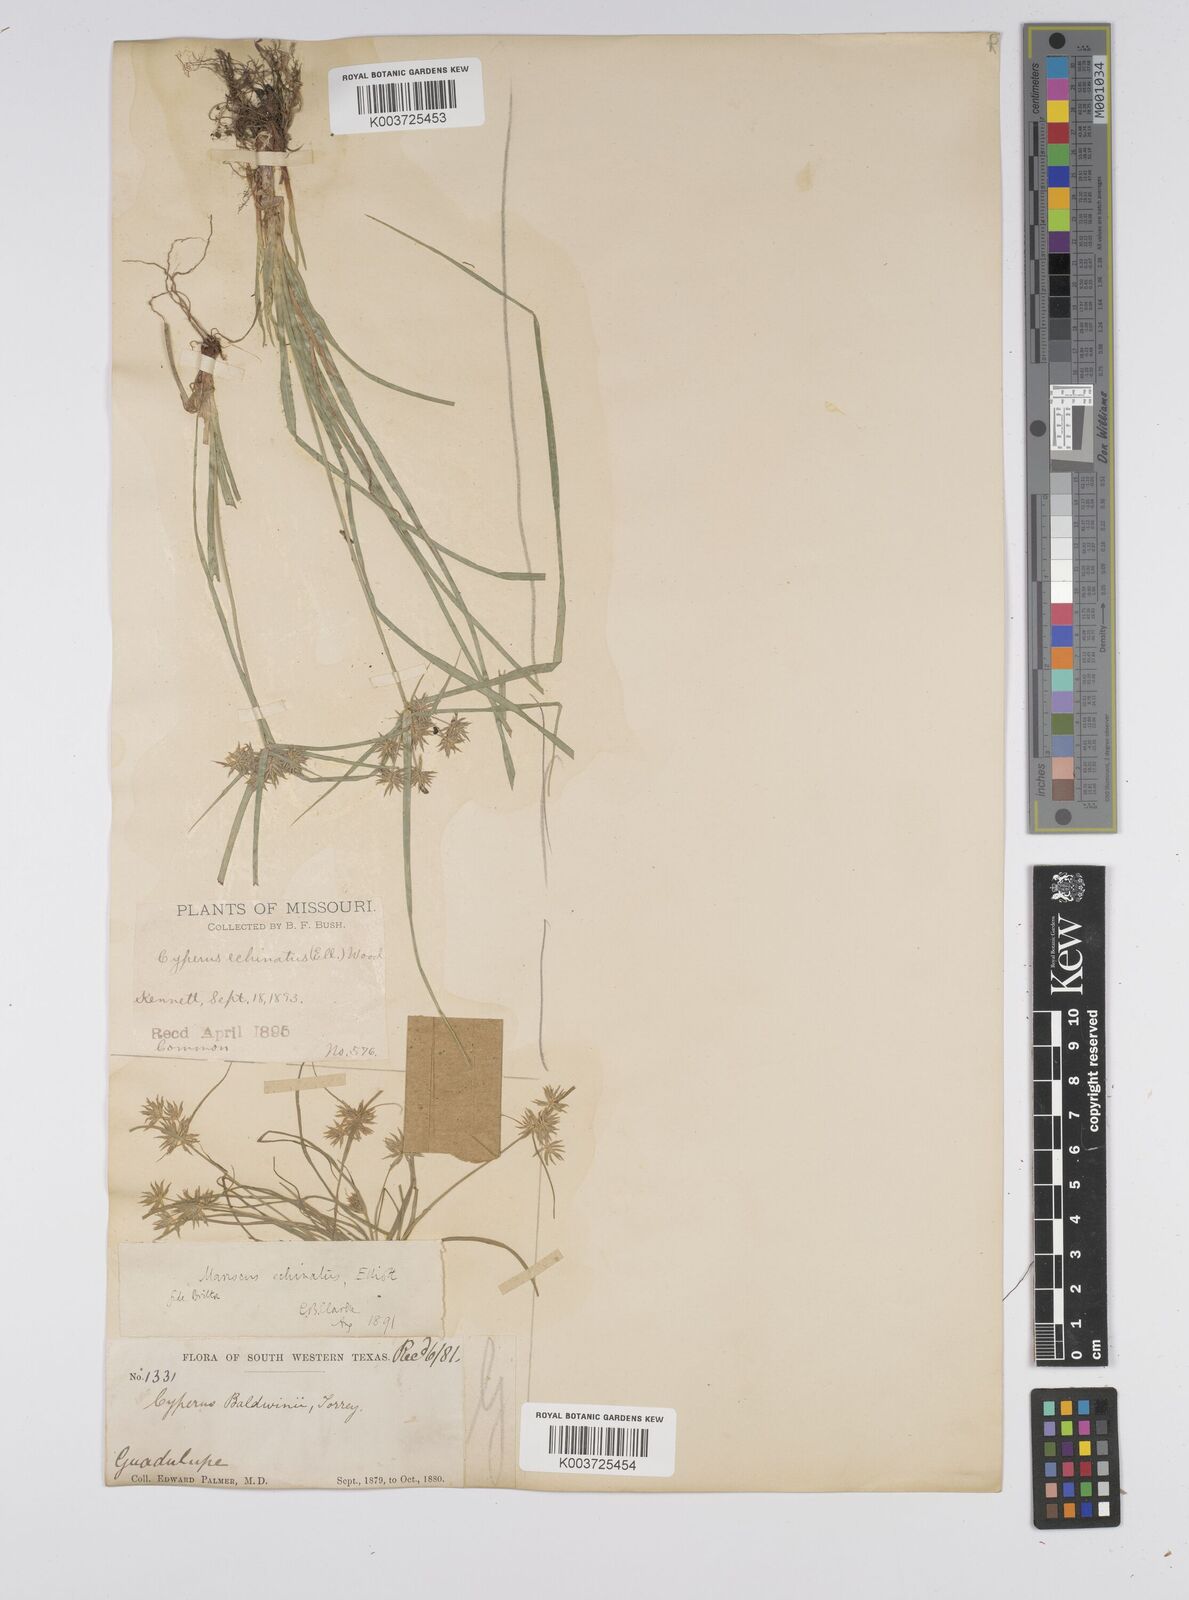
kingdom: Plantae
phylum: Tracheophyta
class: Liliopsida
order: Poales
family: Cyperaceae
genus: Cyperus
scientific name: Cyperus luzulae
